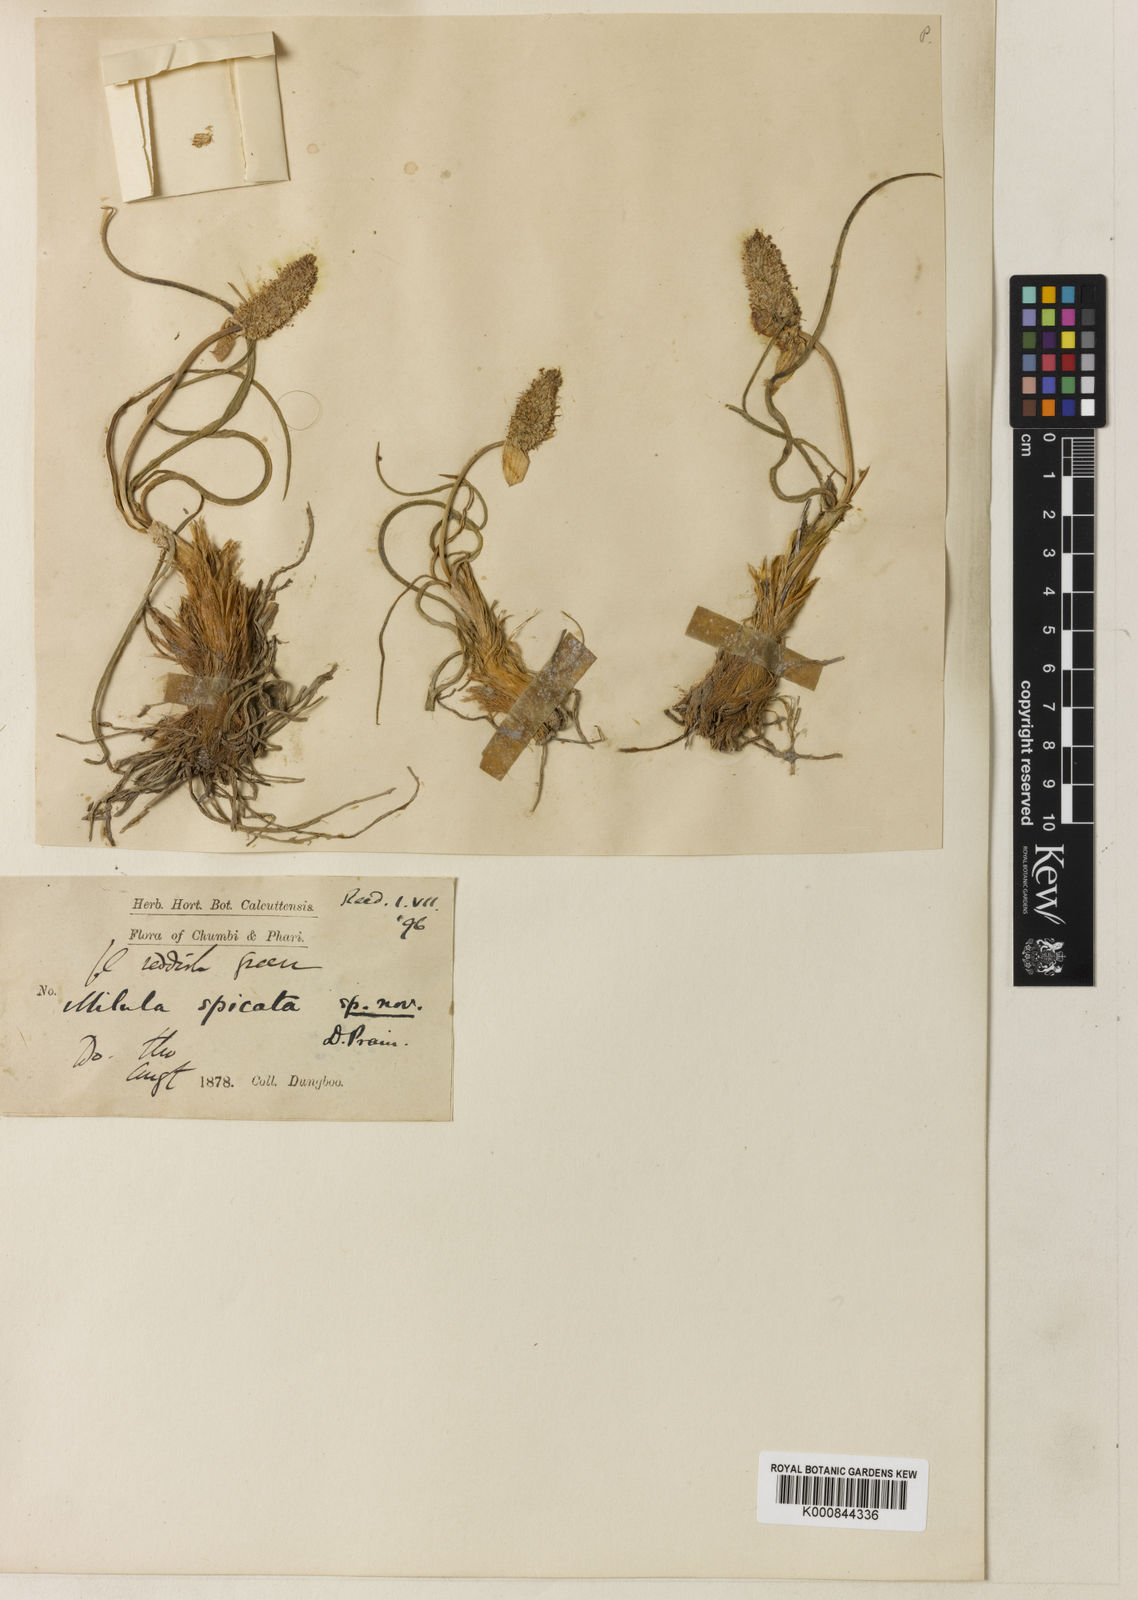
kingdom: Plantae
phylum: Tracheophyta
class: Liliopsida
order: Asparagales
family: Amaryllidaceae
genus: Allium
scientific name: Allium spicatum
